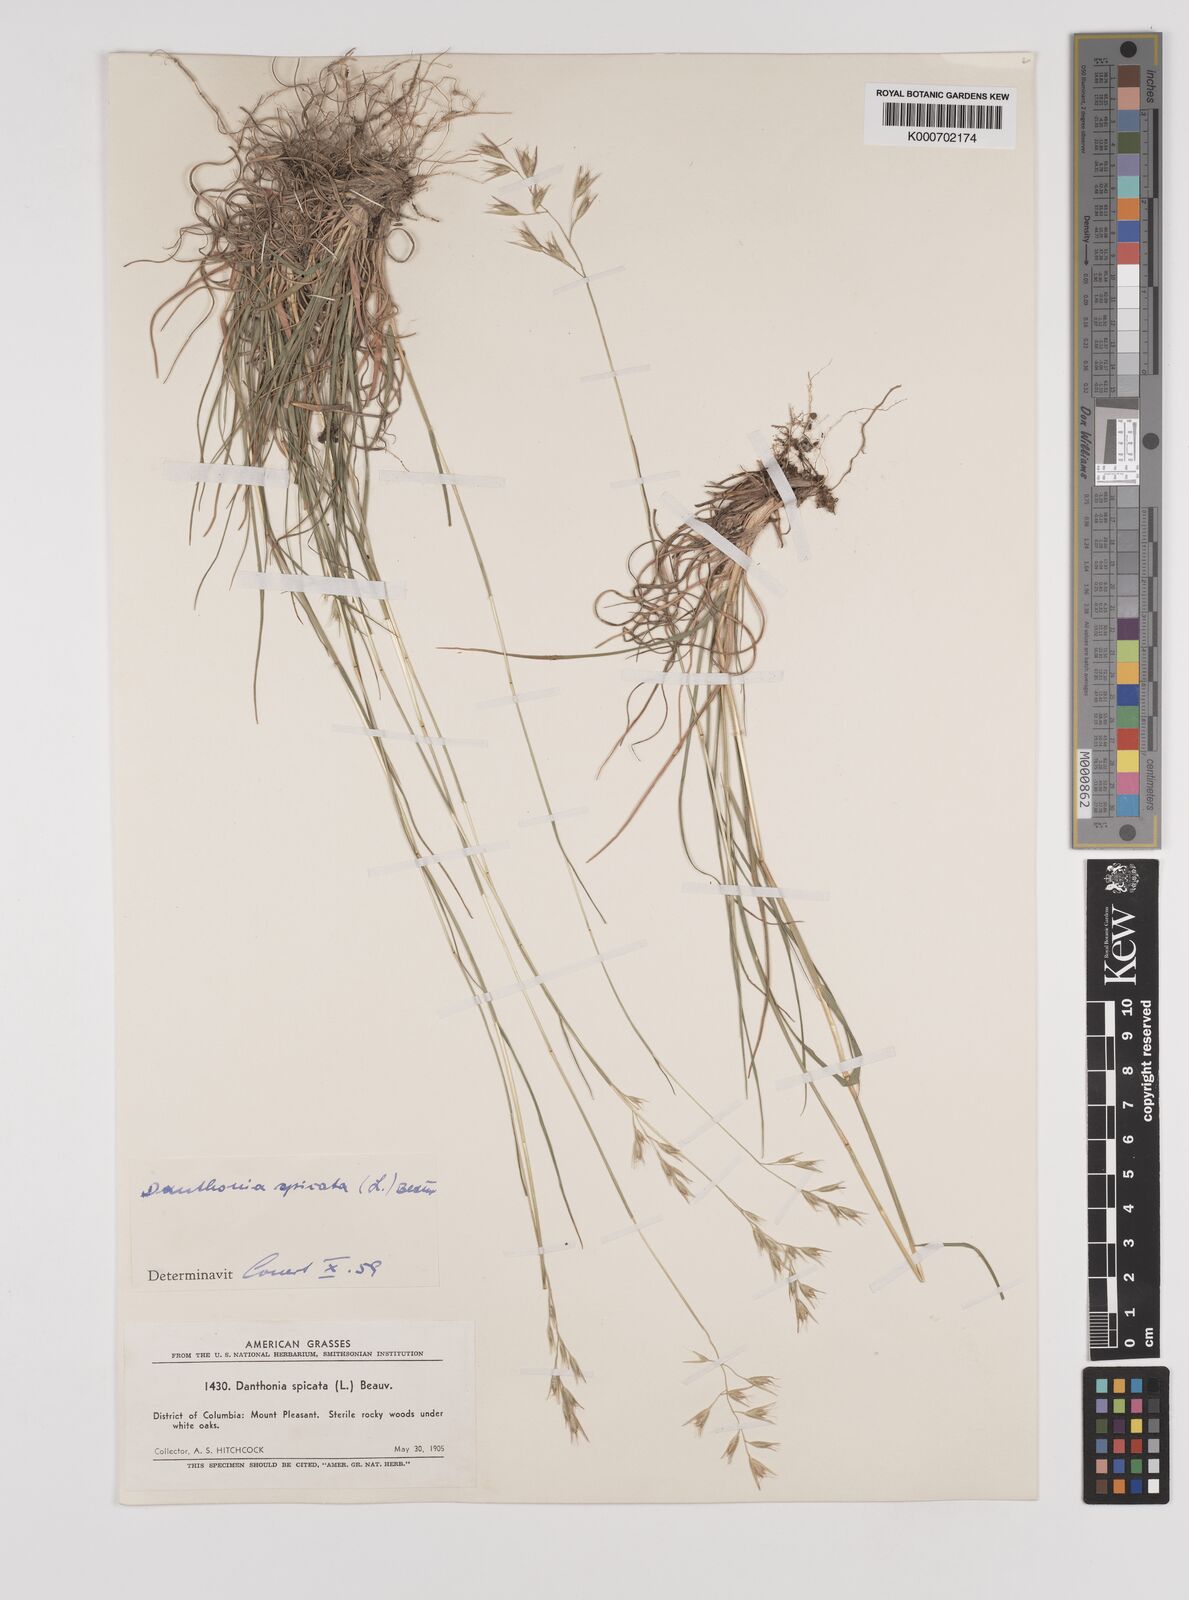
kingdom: Plantae
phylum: Tracheophyta
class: Liliopsida
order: Poales
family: Poaceae
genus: Danthonia
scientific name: Danthonia spicata
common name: Common wild oatgrass
